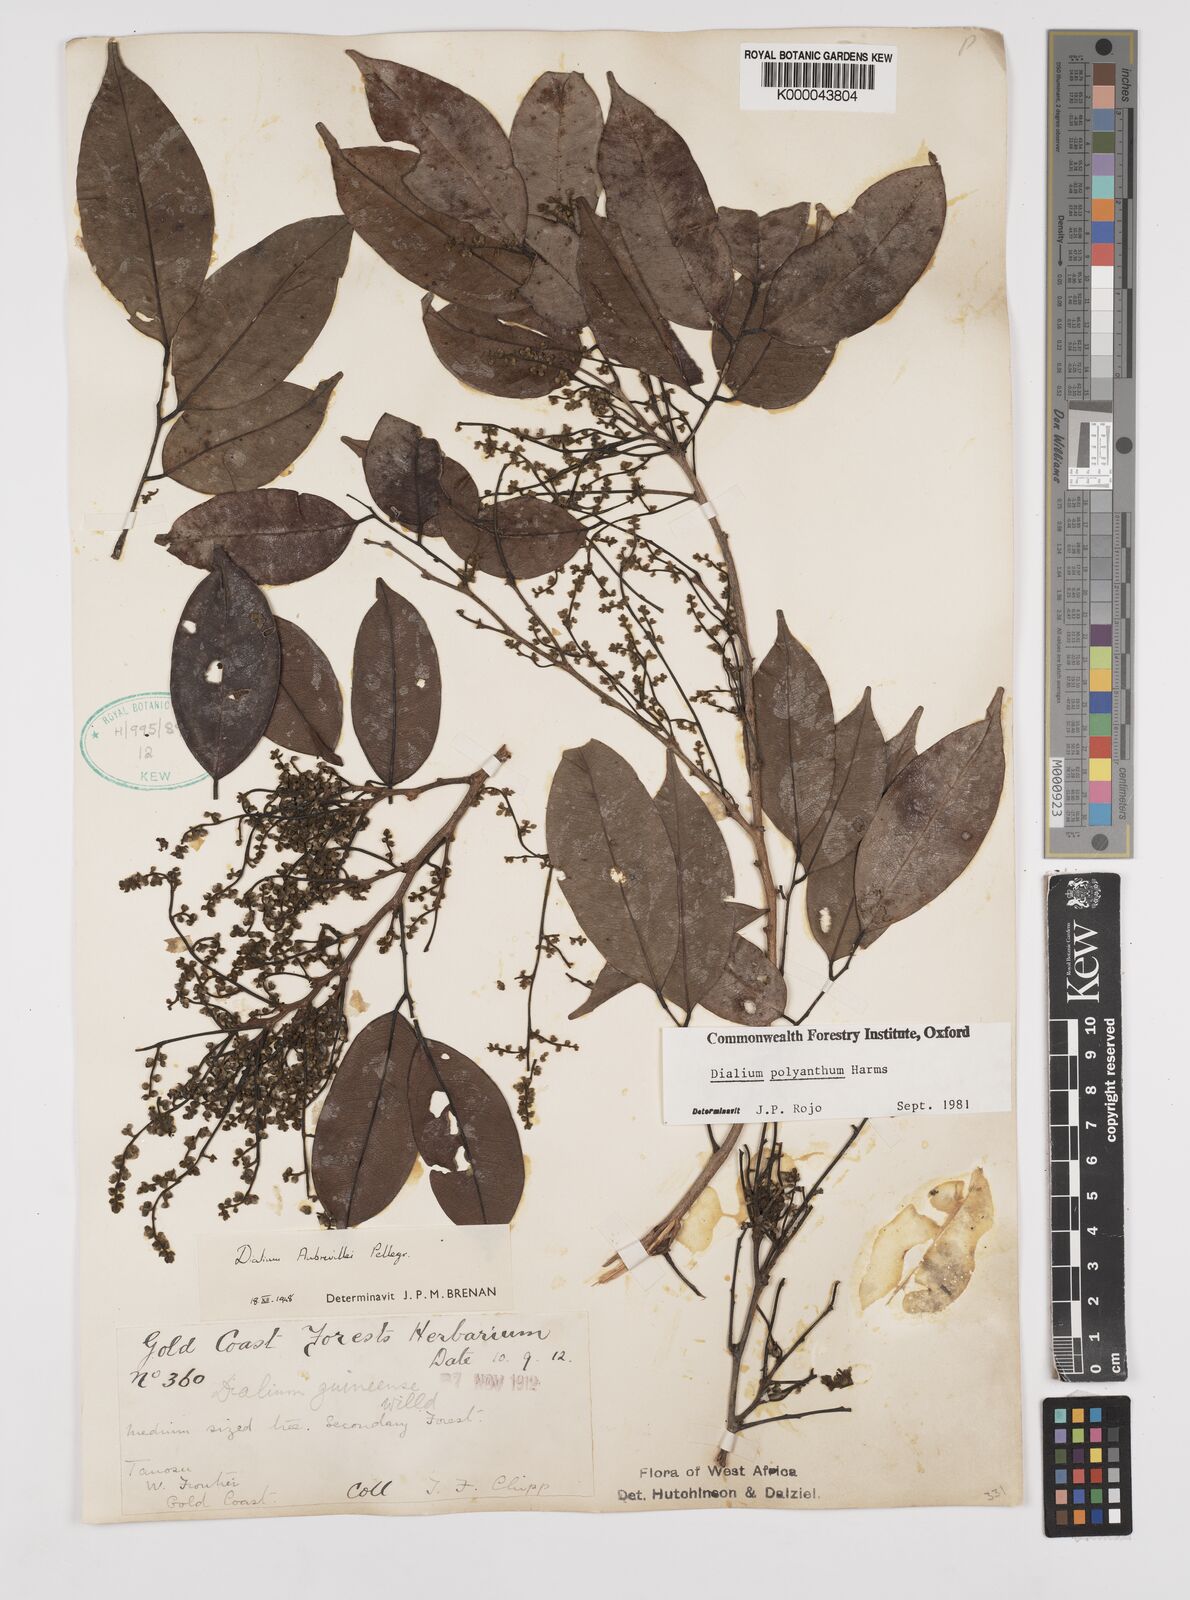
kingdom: Plantae
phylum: Tracheophyta
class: Magnoliopsida
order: Fabales
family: Fabaceae
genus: Dialium
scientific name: Dialium polyanthum
